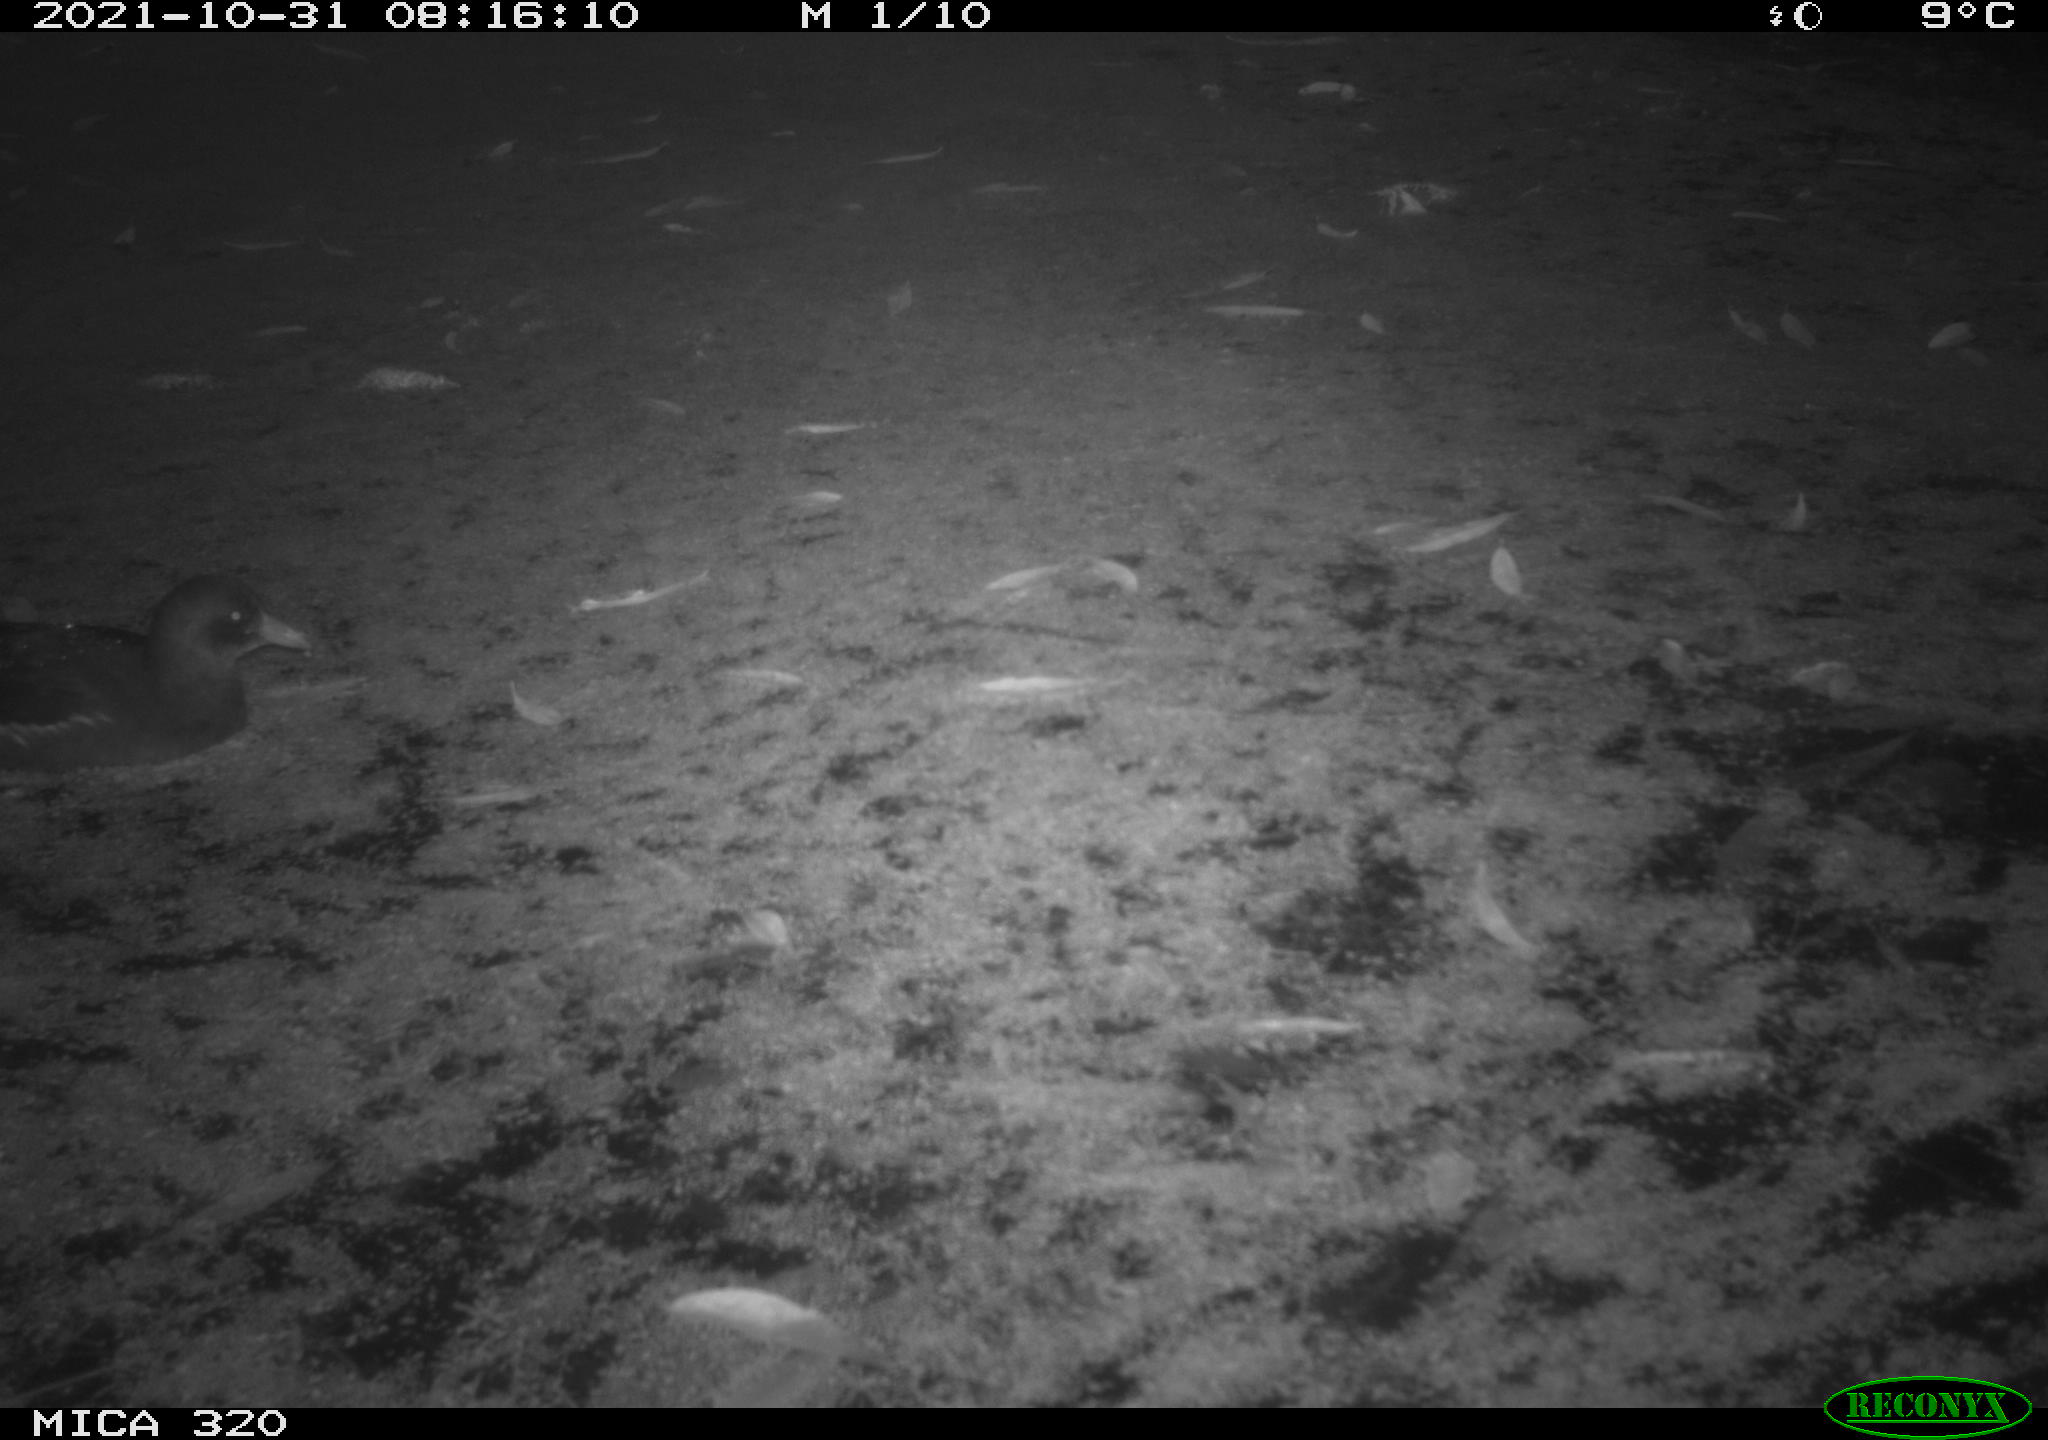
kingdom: Animalia
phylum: Chordata
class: Aves
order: Gruiformes
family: Rallidae
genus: Gallinula
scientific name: Gallinula chloropus
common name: Common moorhen
